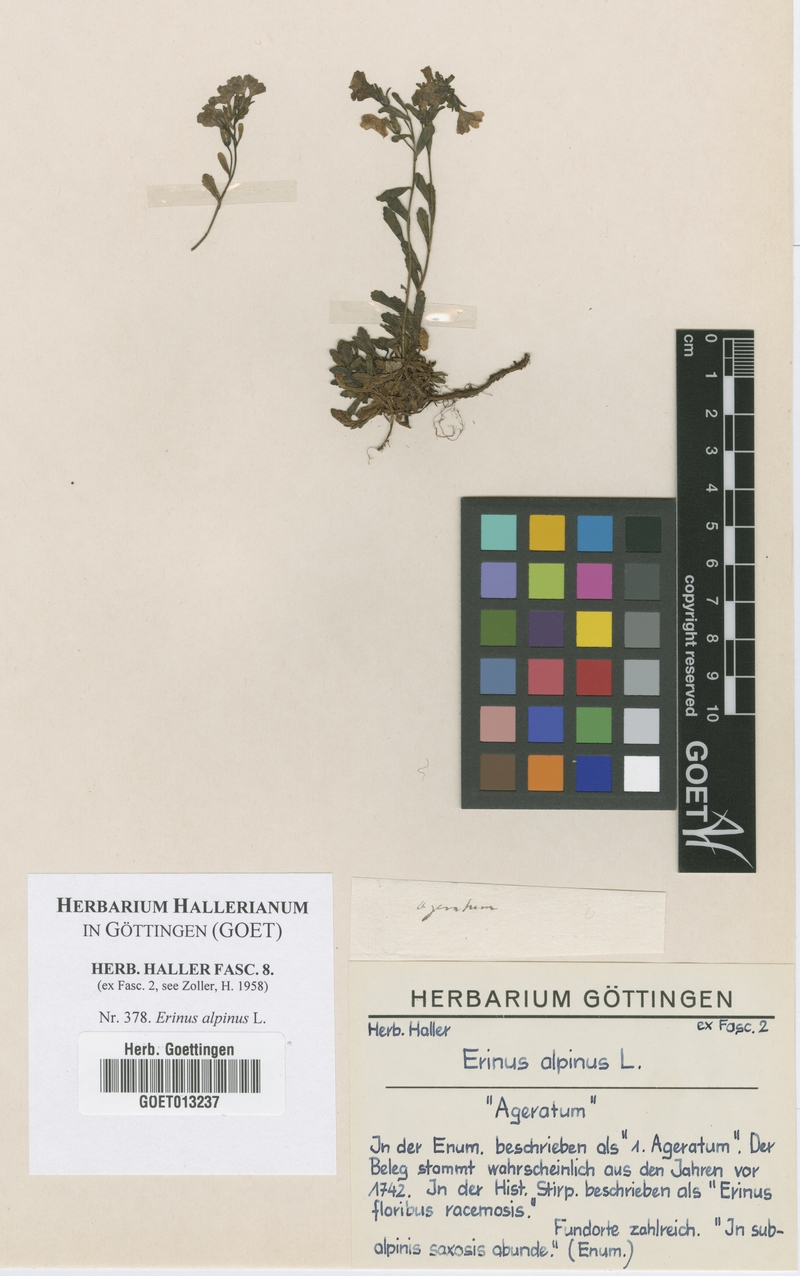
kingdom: Plantae
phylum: Tracheophyta
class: Magnoliopsida
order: Lamiales
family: Plantaginaceae
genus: Erinus
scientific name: Erinus alpinus
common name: Fairy foxglove
